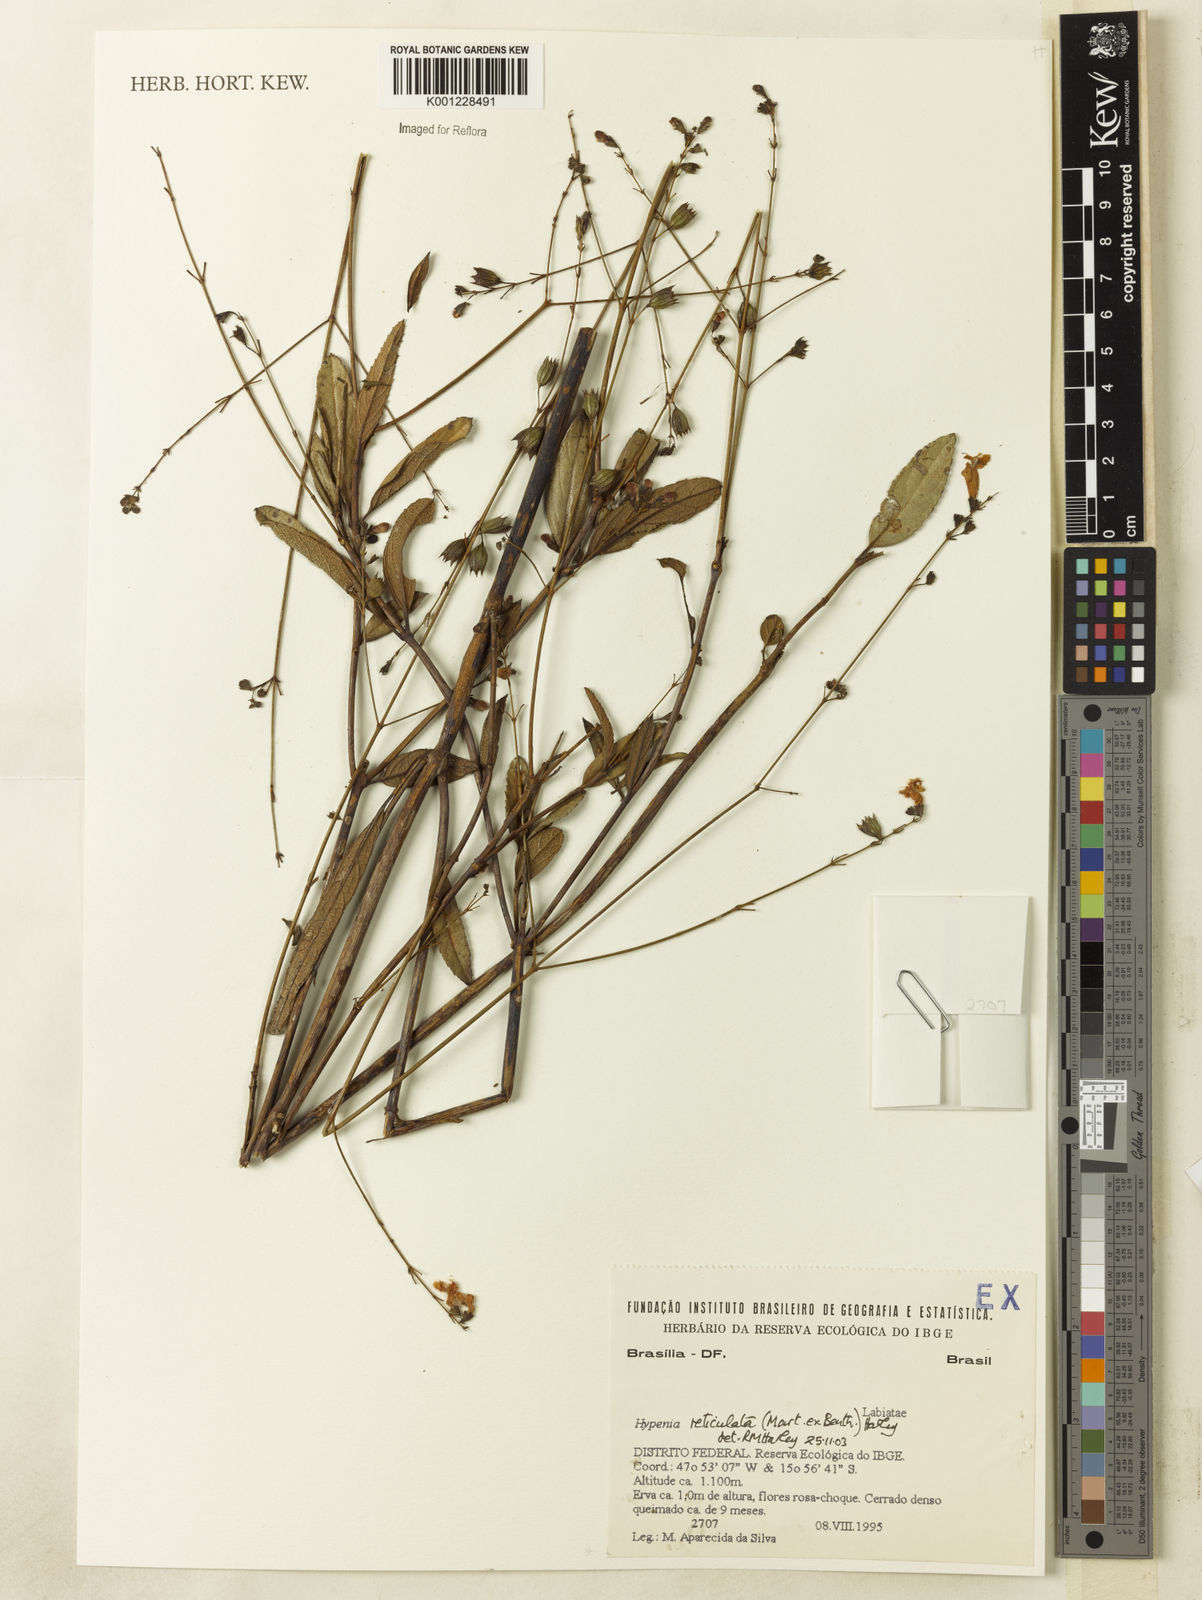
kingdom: Plantae
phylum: Tracheophyta
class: Magnoliopsida
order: Lamiales
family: Lamiaceae
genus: Hypenia
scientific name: Hypenia reticulata
